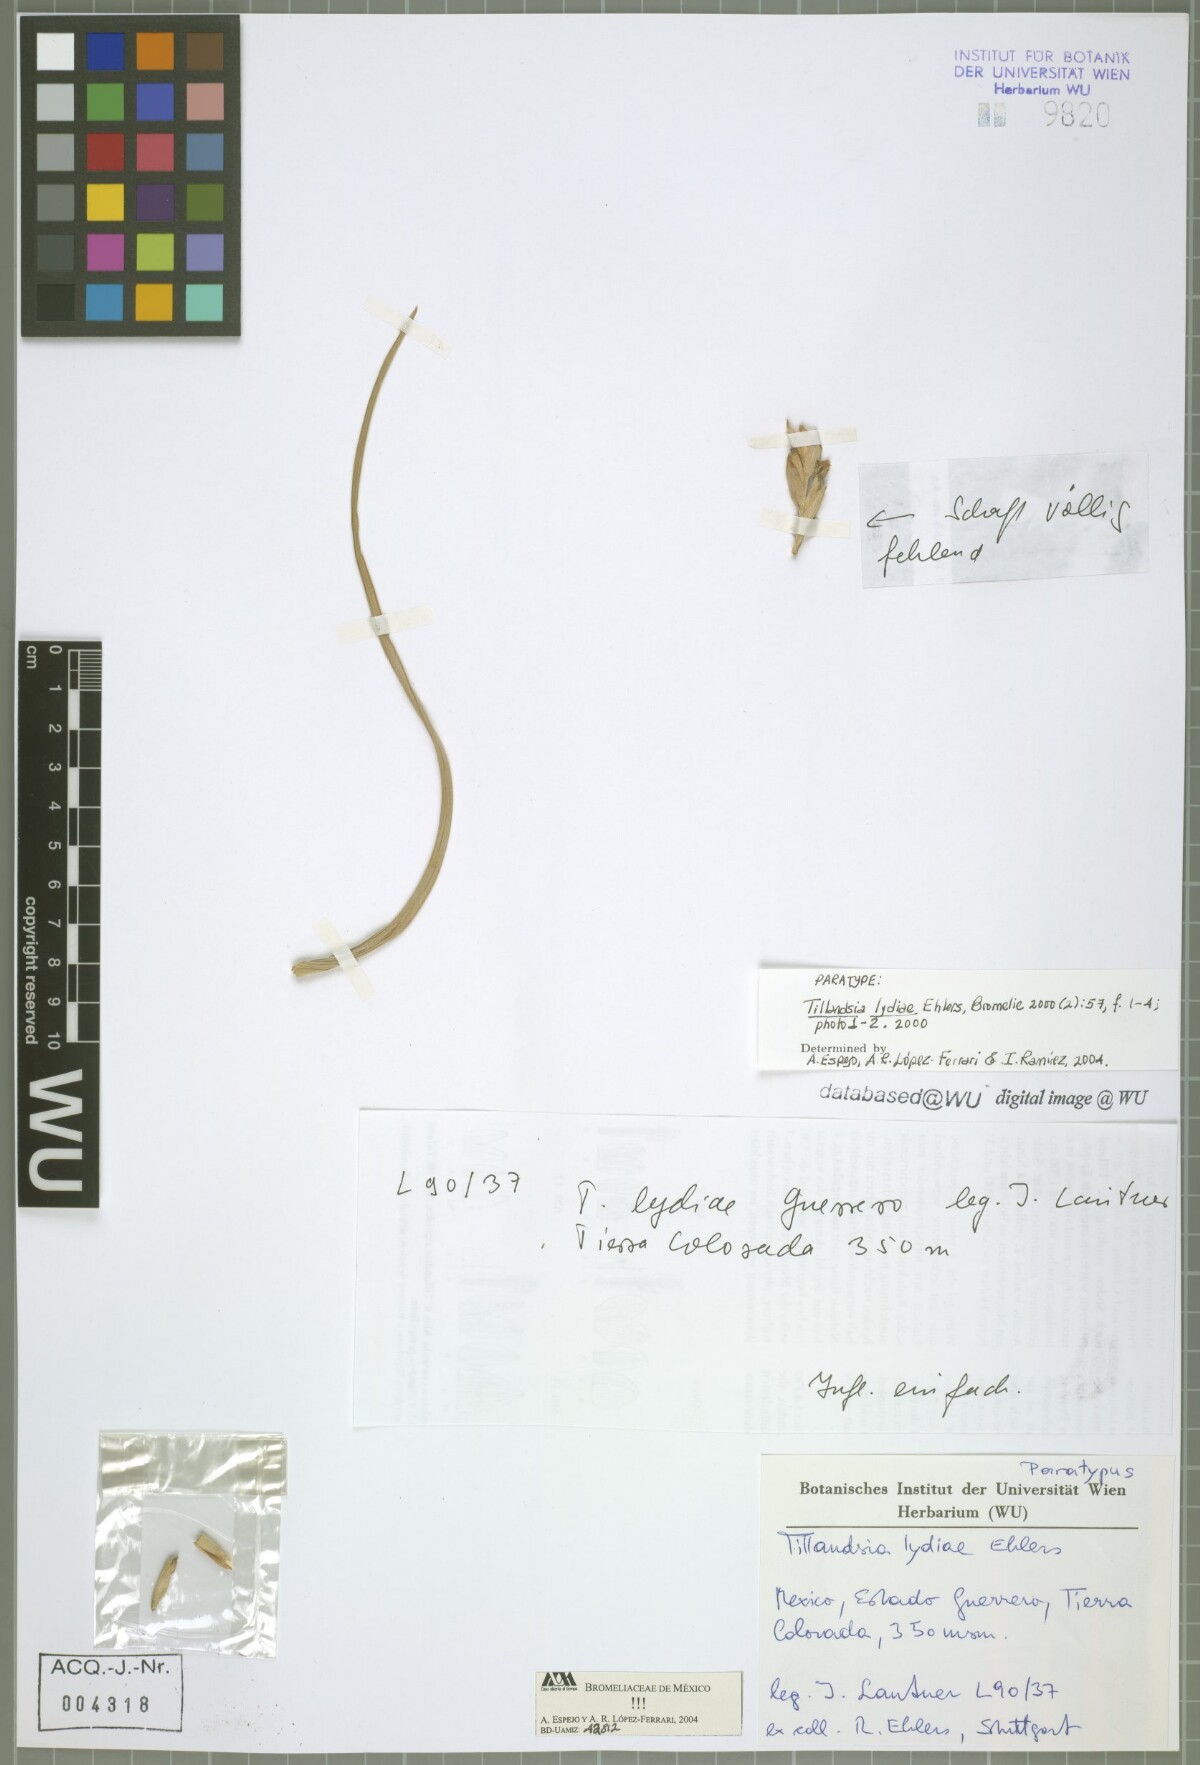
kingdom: Plantae
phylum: Tracheophyta
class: Liliopsida
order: Poales
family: Bromeliaceae
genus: Tillandsia
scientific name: Tillandsia lydiae
